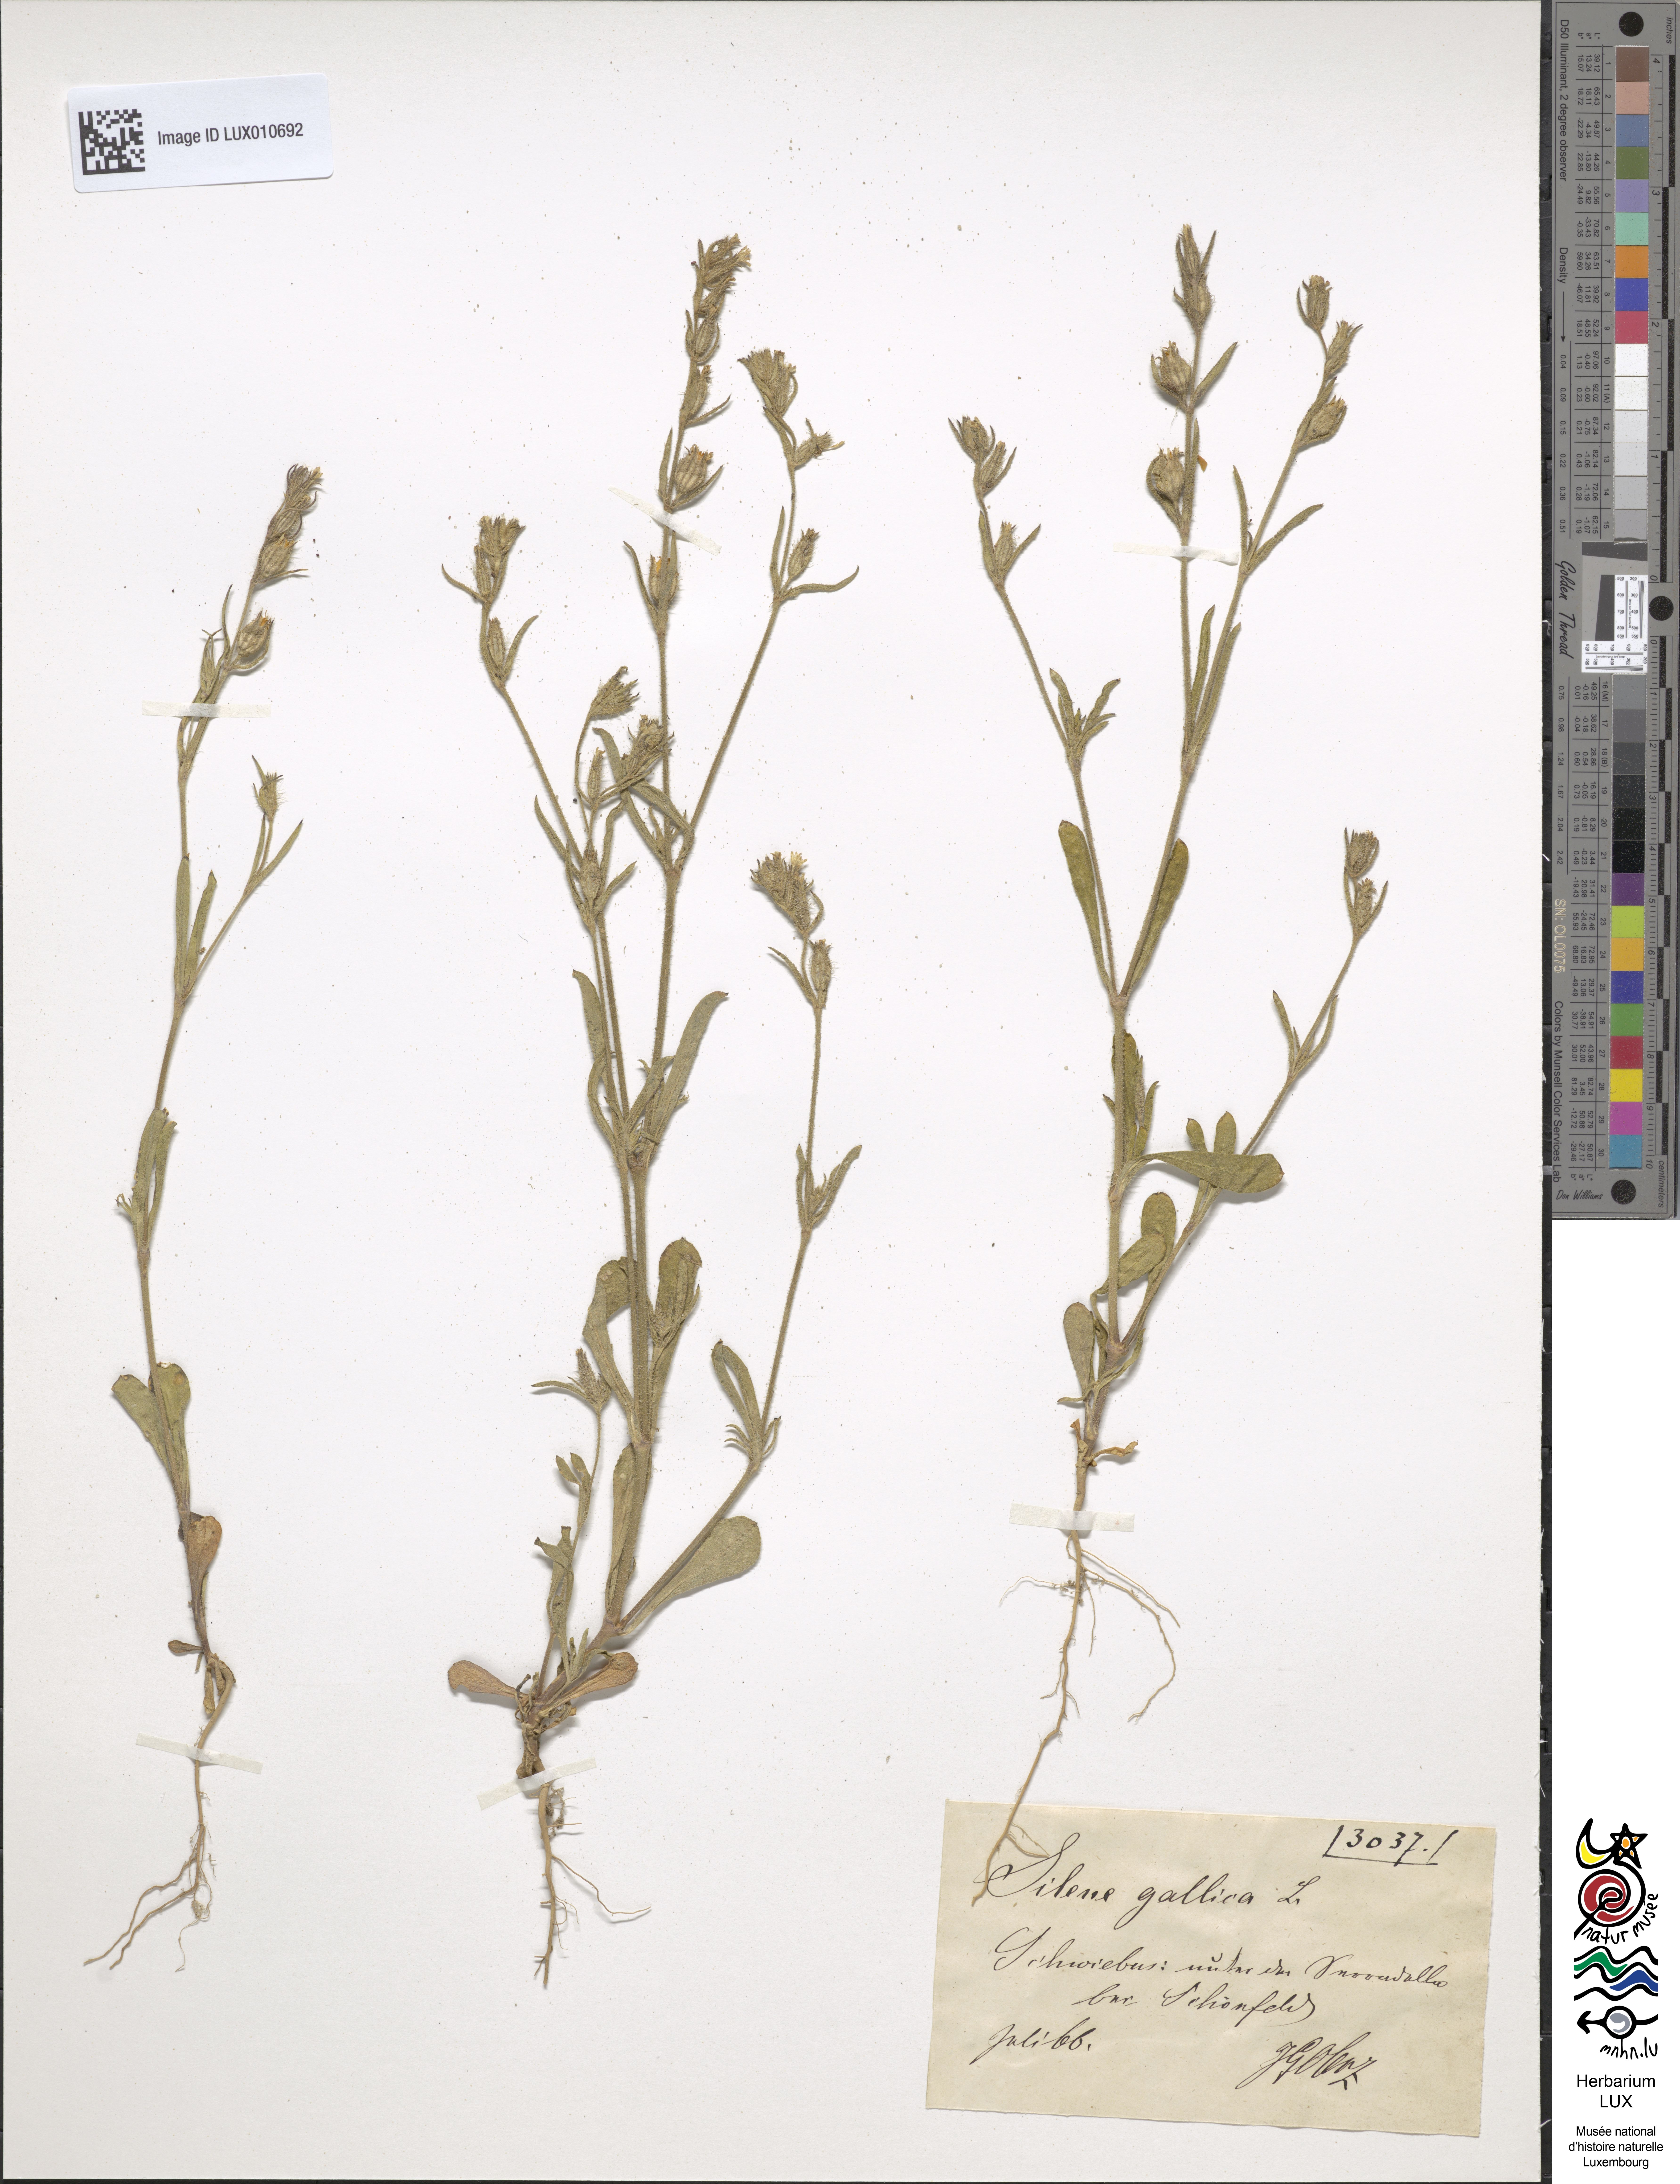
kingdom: Plantae
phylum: Tracheophyta
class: Magnoliopsida
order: Caryophyllales
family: Caryophyllaceae
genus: Silene
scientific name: Silene gallica
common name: Small-flowered catchfly
